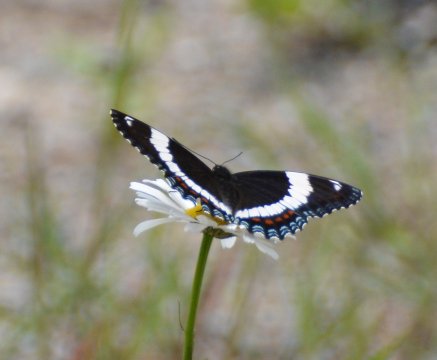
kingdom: Animalia
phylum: Arthropoda
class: Insecta
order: Lepidoptera
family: Nymphalidae
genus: Limenitis
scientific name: Limenitis arthemis
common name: Red-spotted Admiral
